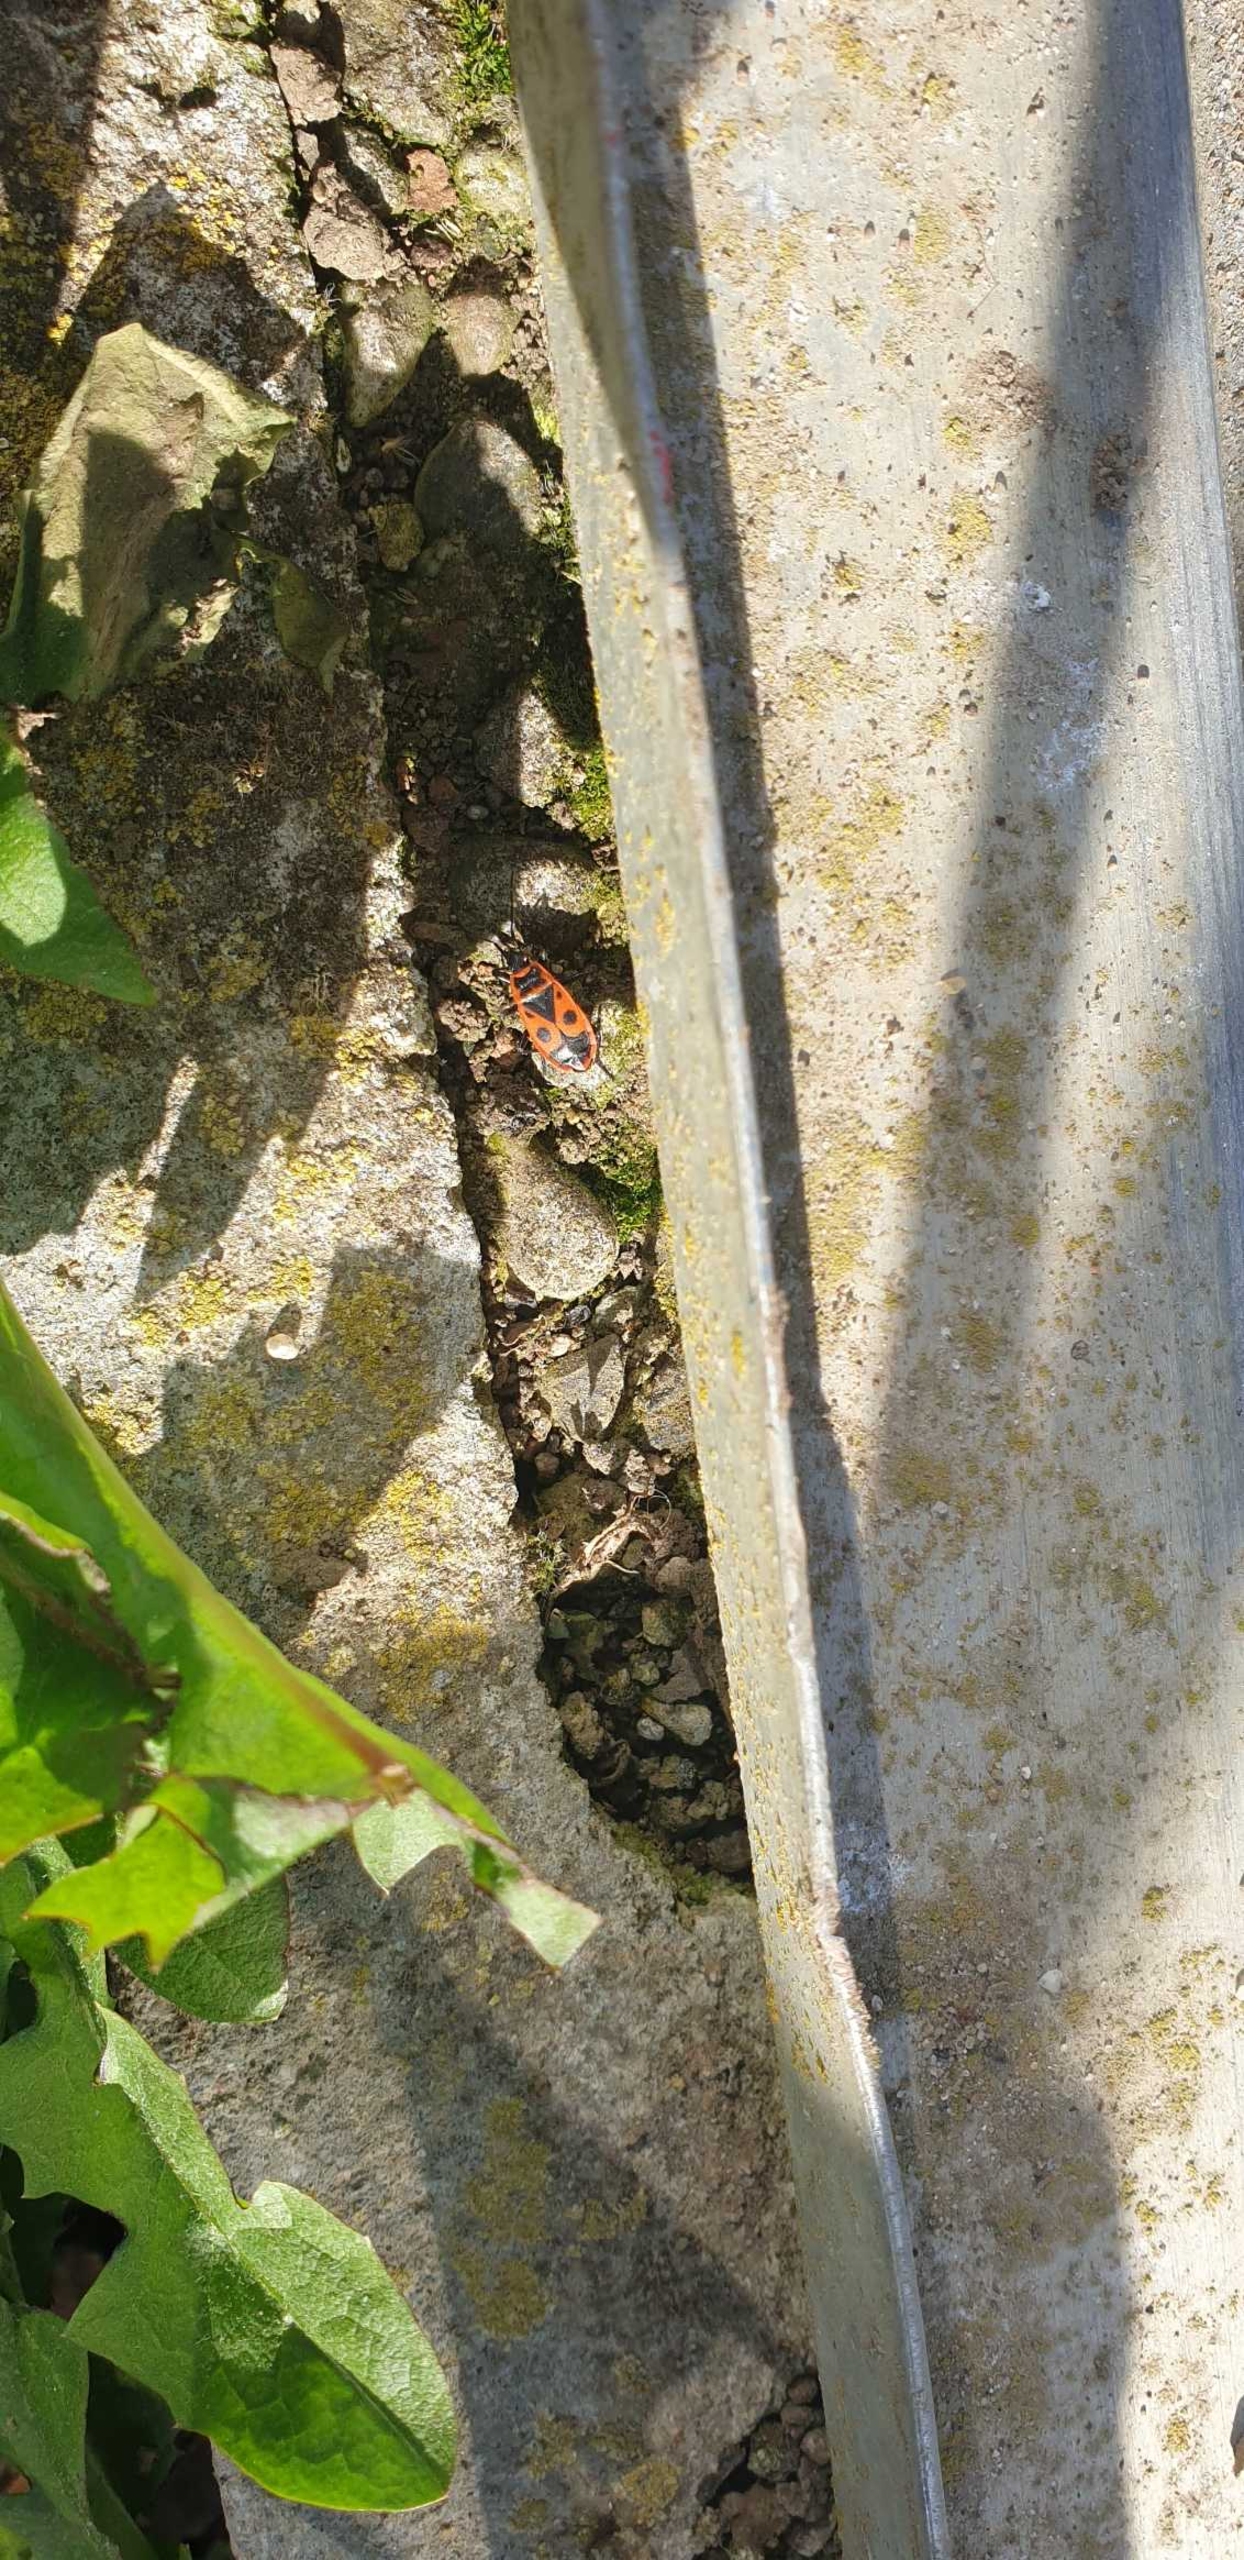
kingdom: Animalia
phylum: Arthropoda
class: Insecta
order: Hemiptera
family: Pyrrhocoridae
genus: Pyrrhocoris
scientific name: Pyrrhocoris apterus
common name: Ildtæge
